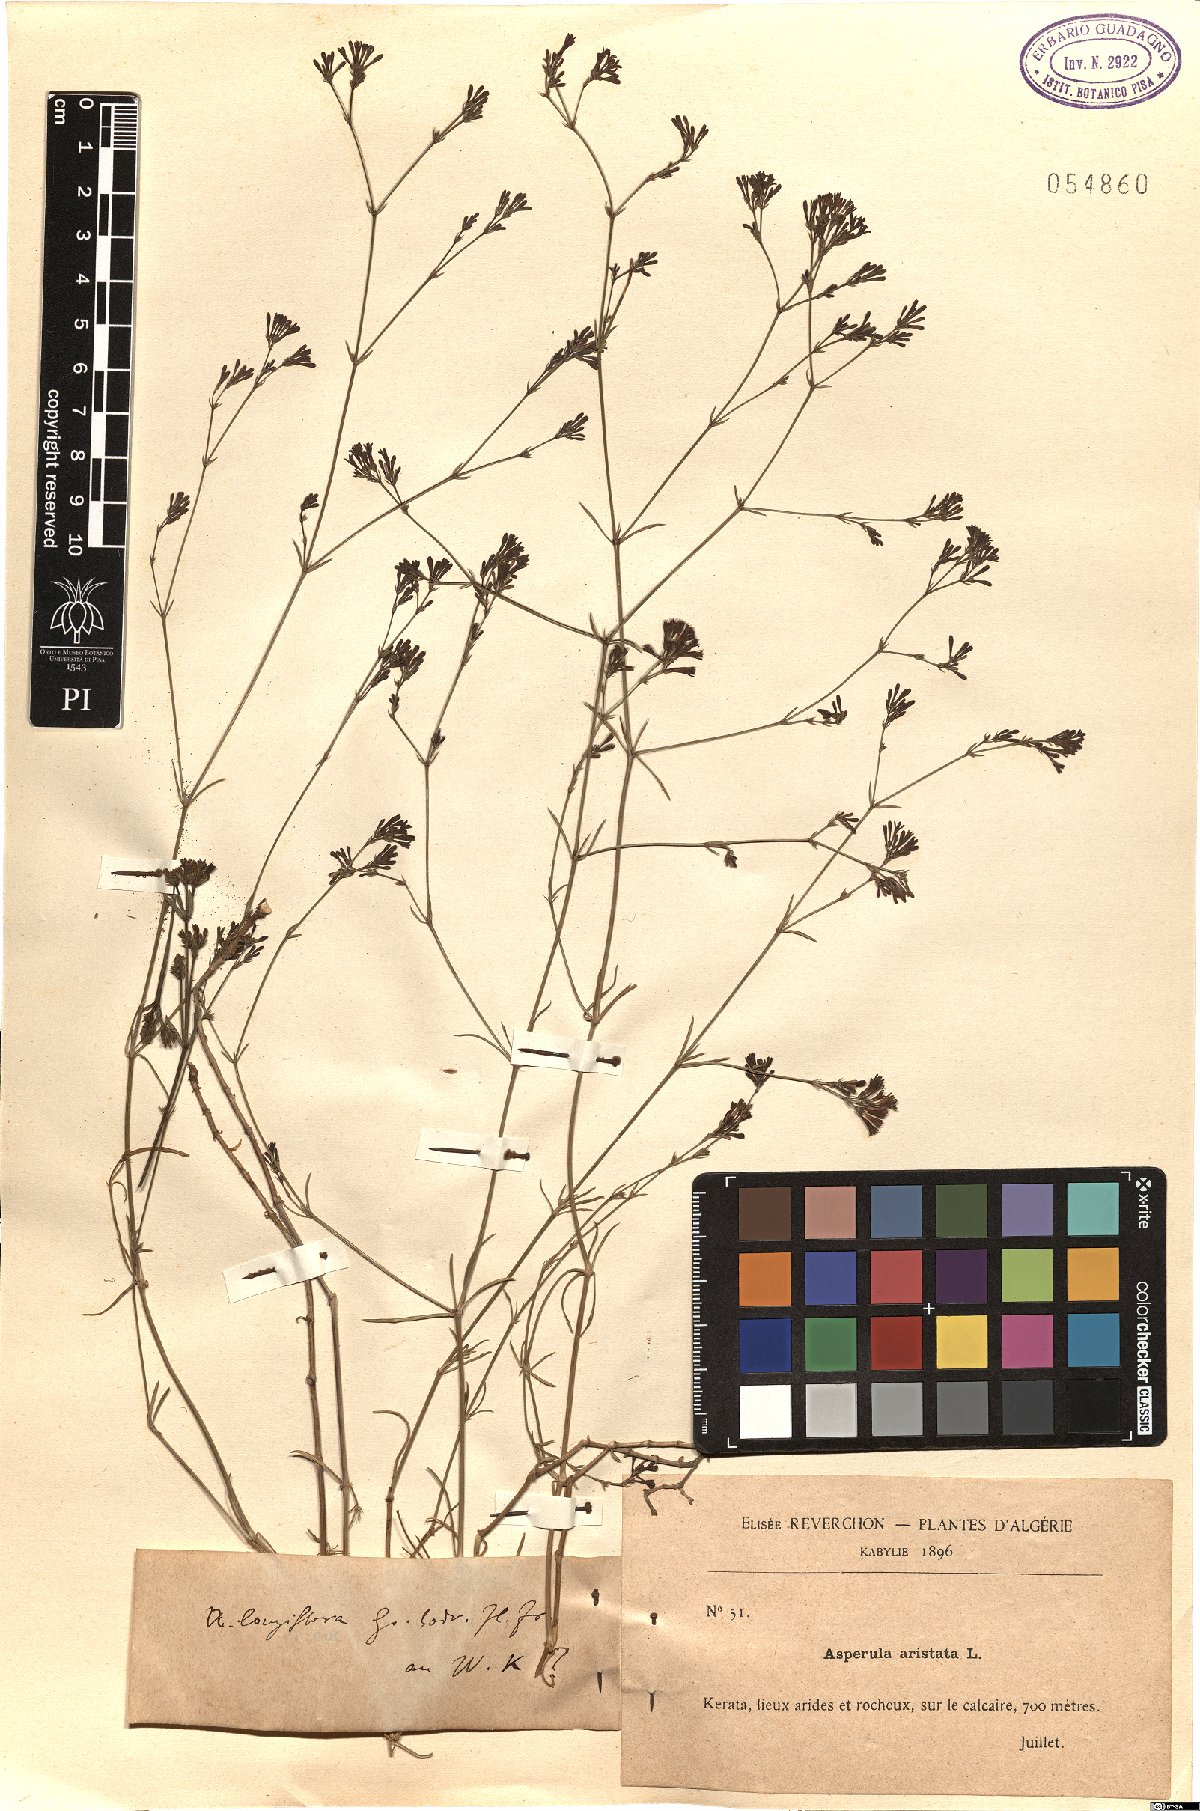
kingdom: Plantae
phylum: Tracheophyta
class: Magnoliopsida
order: Gentianales
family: Rubiaceae
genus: Cynanchica
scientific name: Cynanchica aristata
